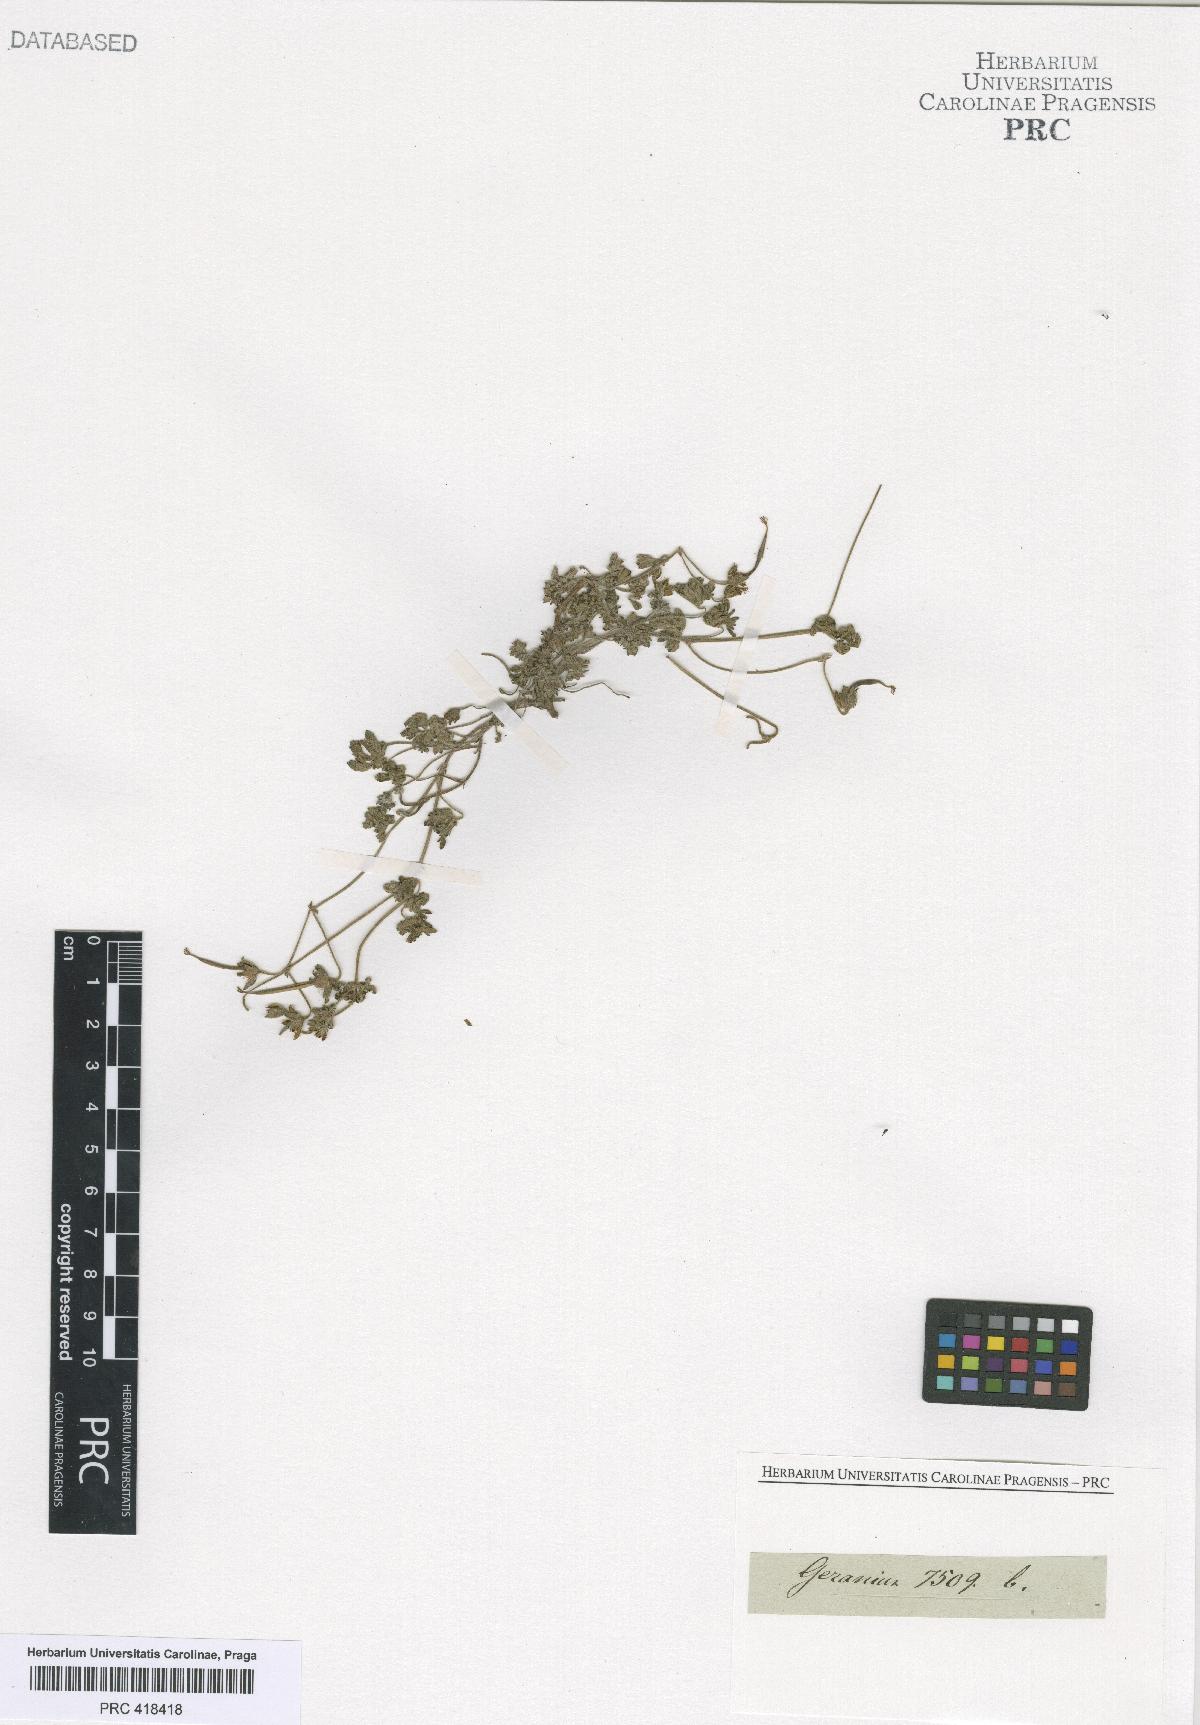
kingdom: Plantae
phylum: Tracheophyta
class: Magnoliopsida
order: Geraniales
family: Geraniaceae
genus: Geranium
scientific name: Geranium
